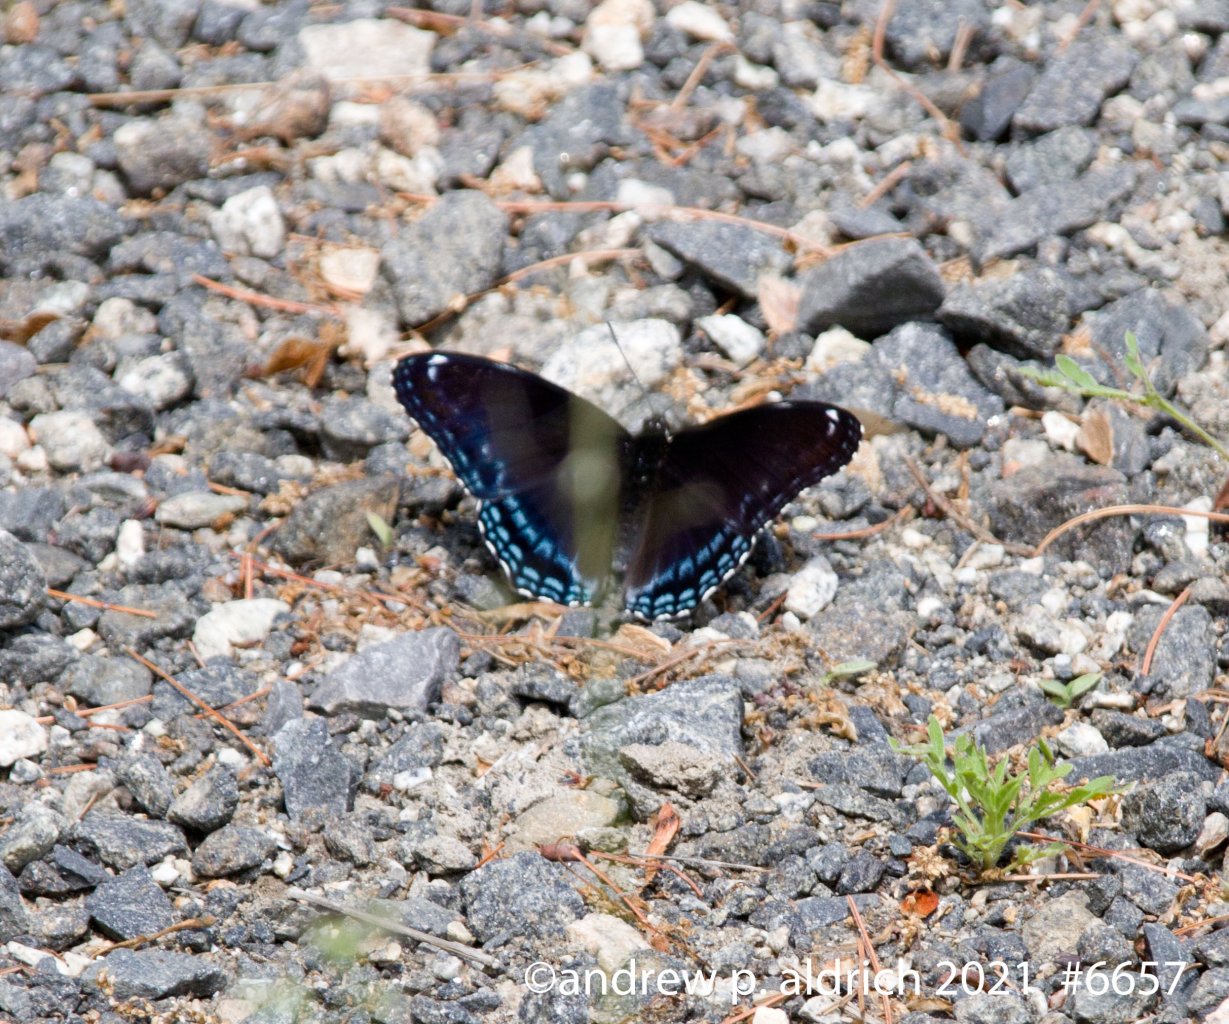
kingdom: Animalia
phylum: Arthropoda
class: Insecta
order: Lepidoptera
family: Nymphalidae
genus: Limenitis
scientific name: Limenitis astyanax
